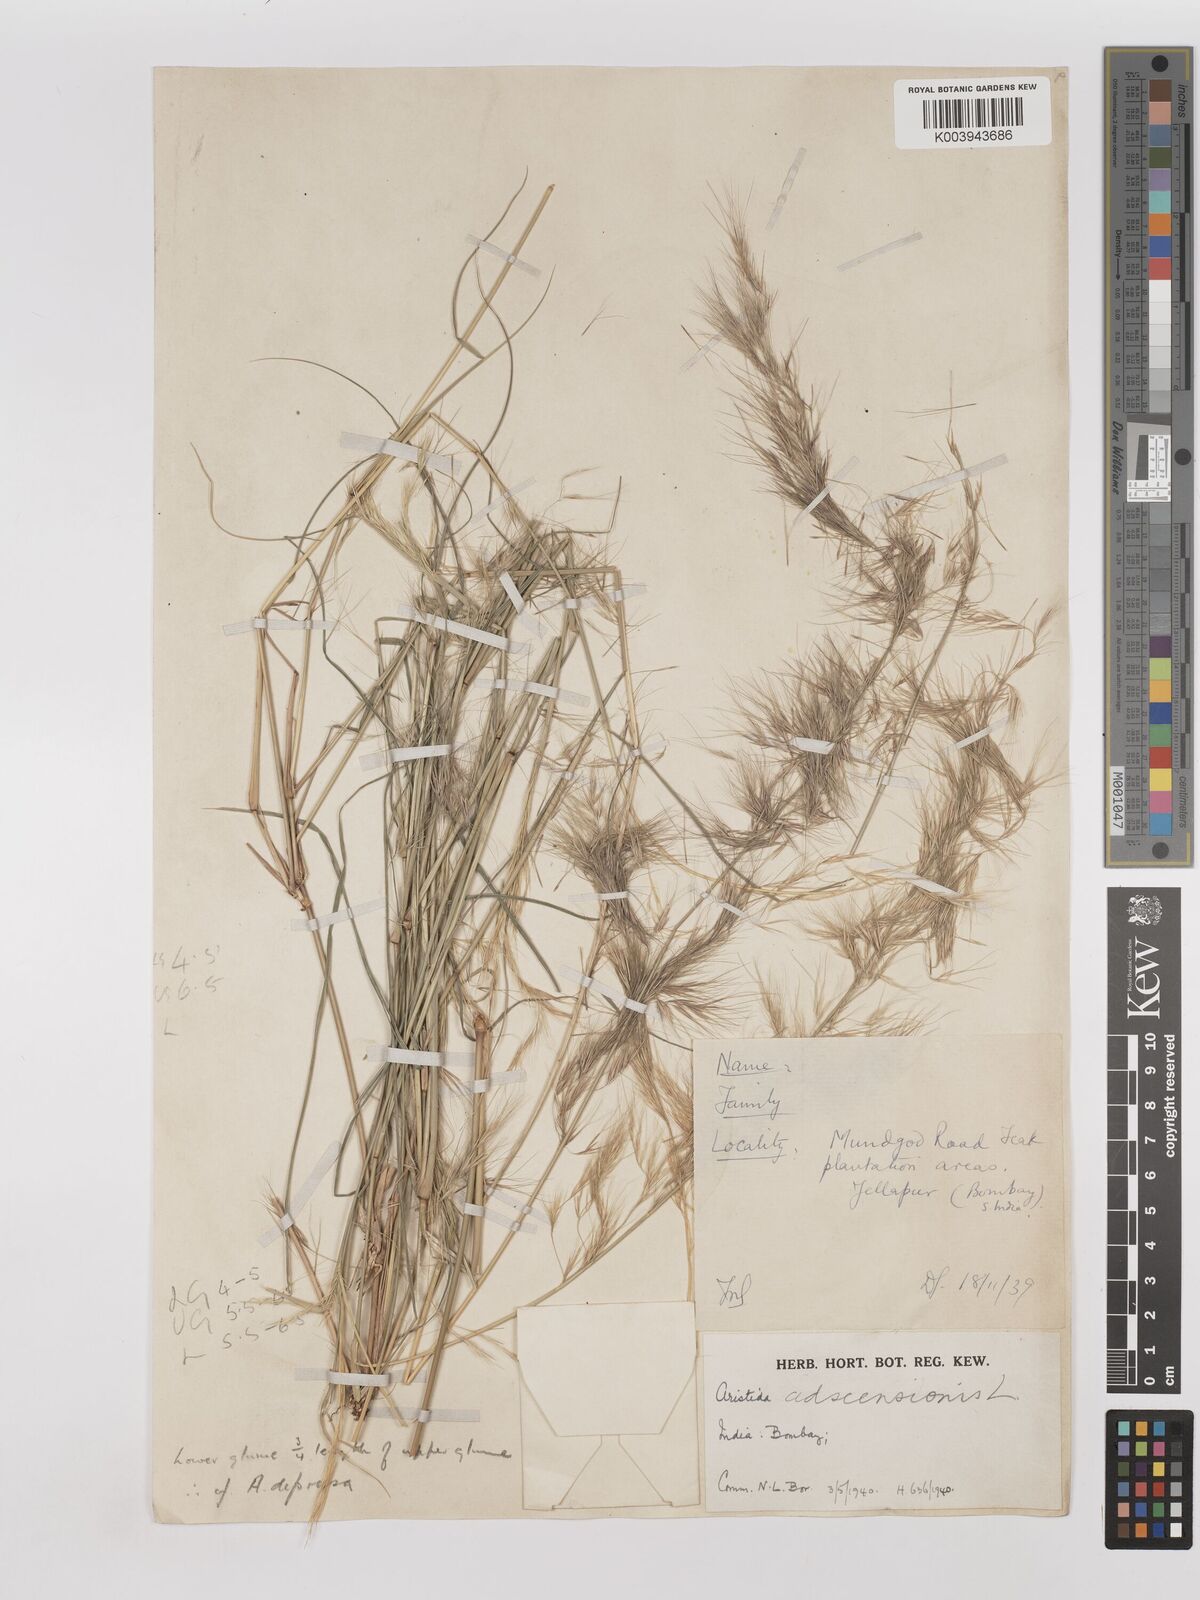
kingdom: Plantae
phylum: Tracheophyta
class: Liliopsida
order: Poales
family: Poaceae
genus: Aristida
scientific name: Aristida adscensionis
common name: Sixweeks threeawn
